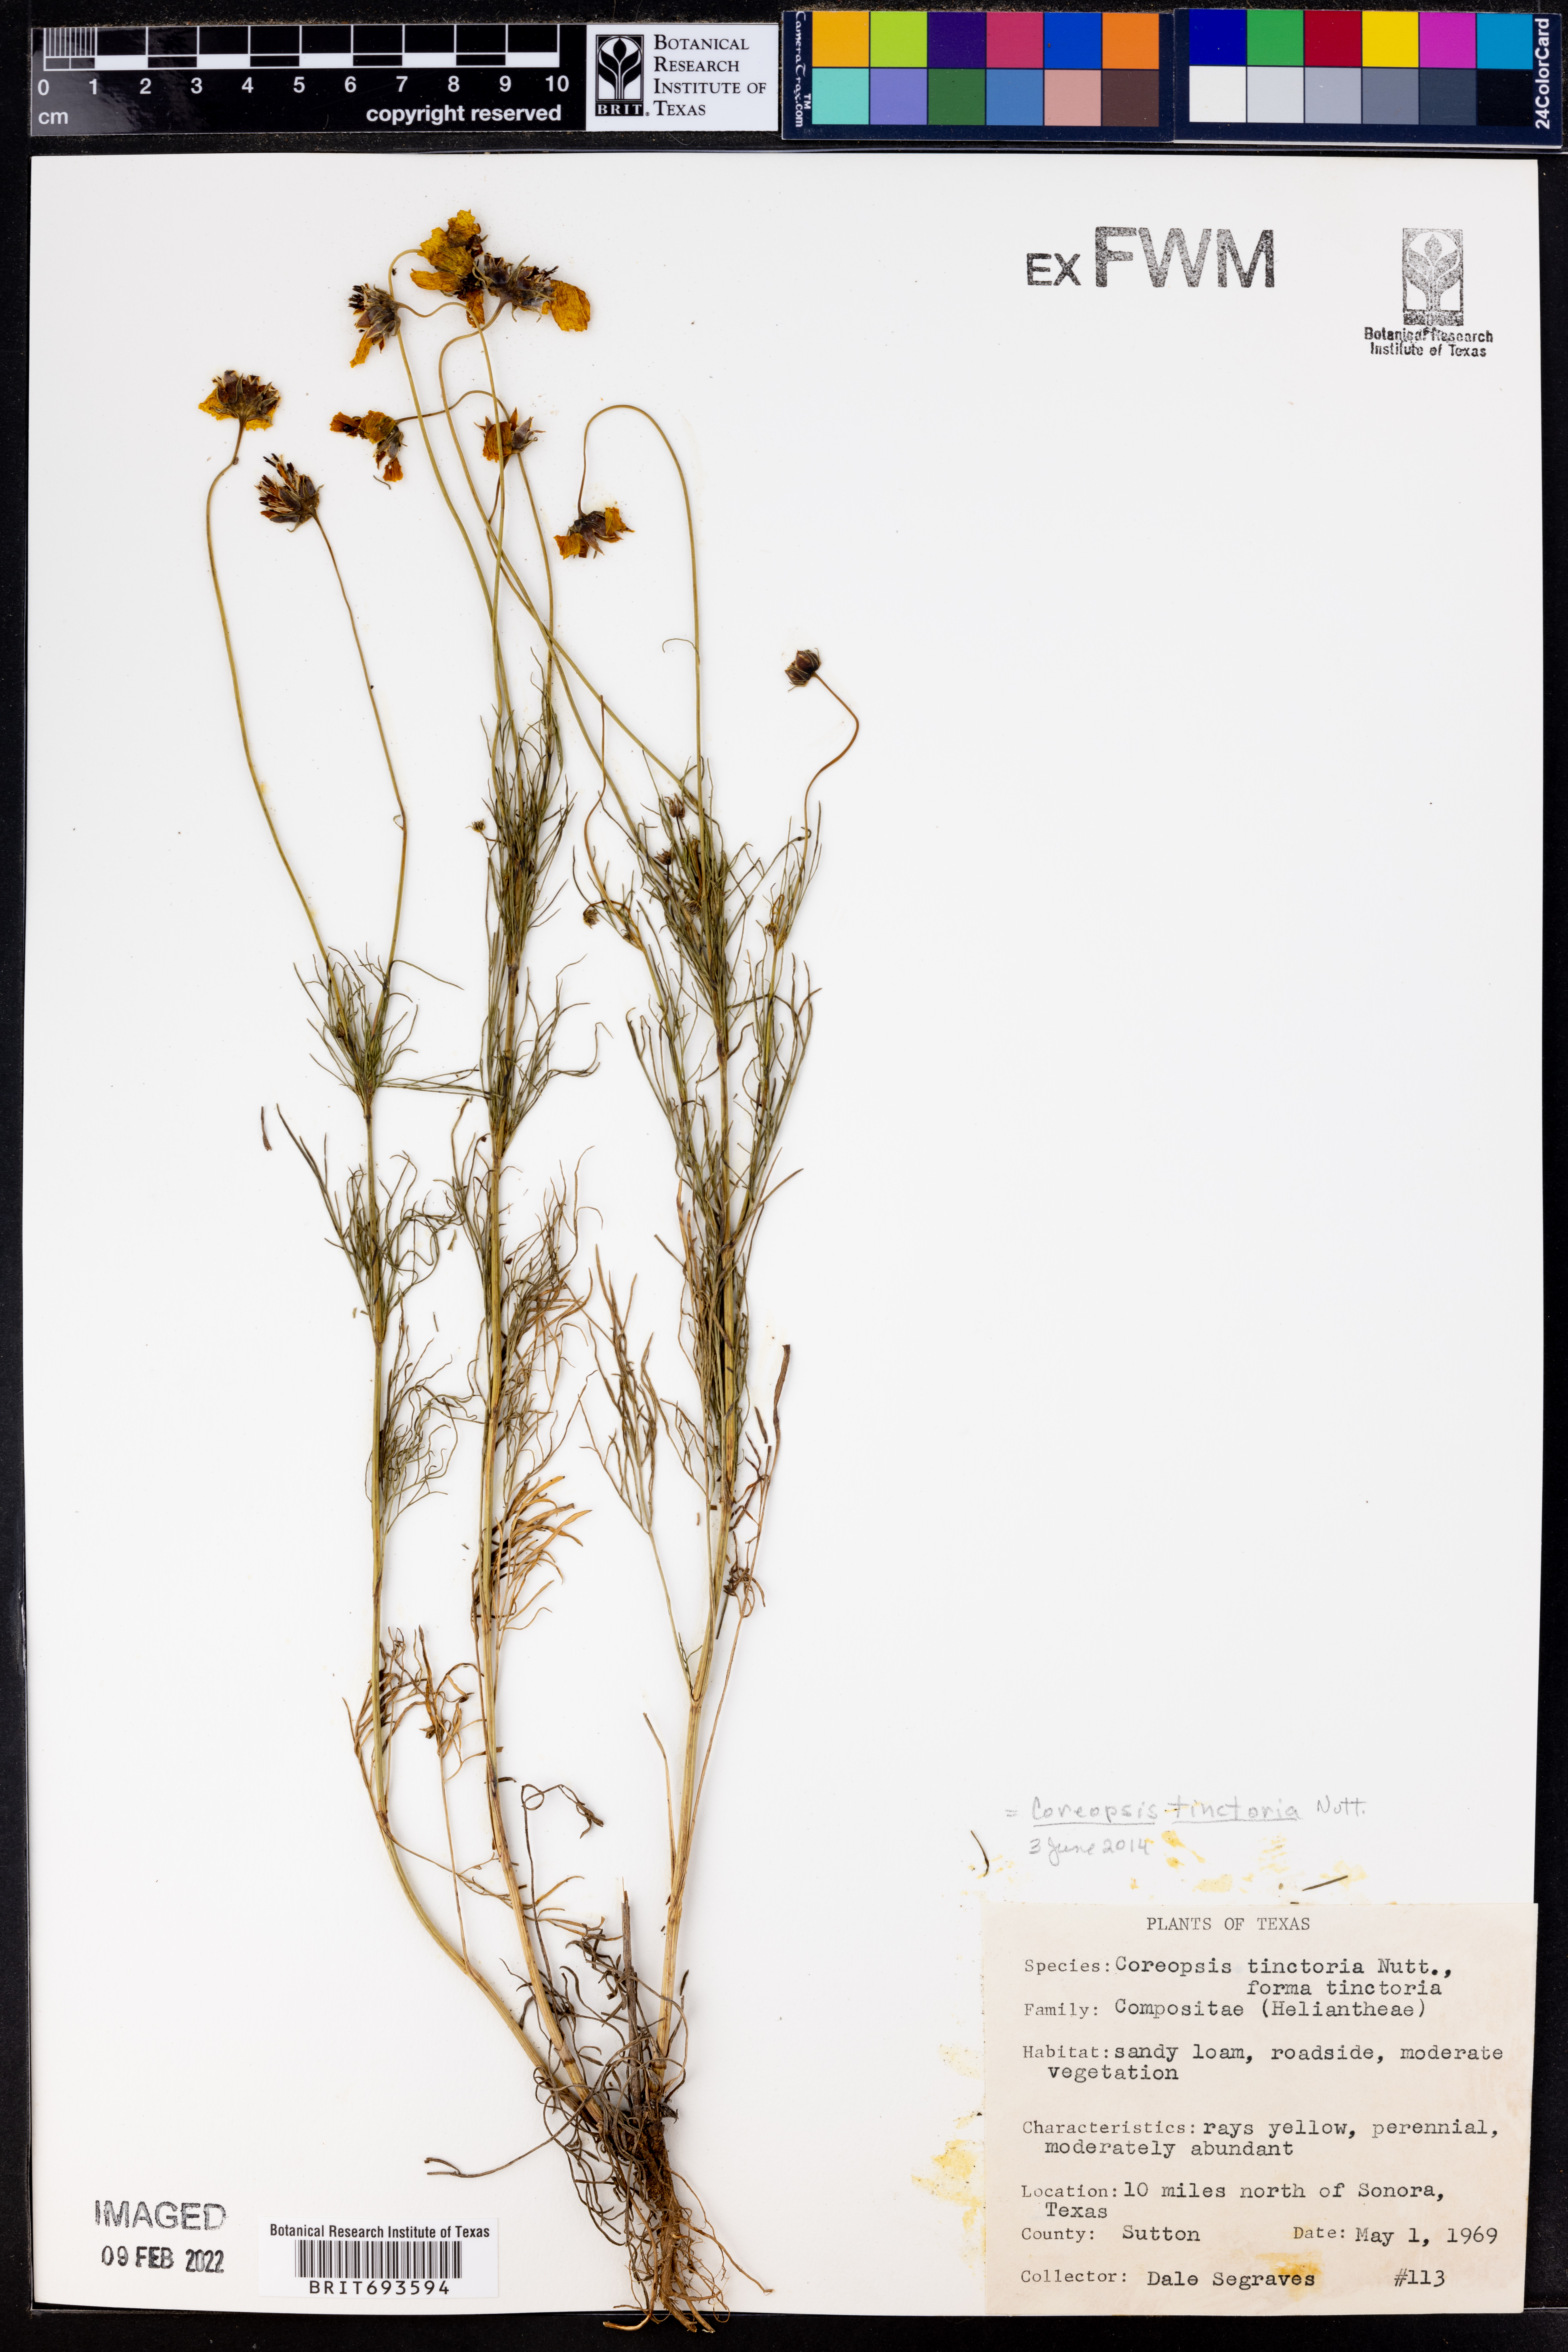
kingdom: Plantae
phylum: Tracheophyta
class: Magnoliopsida
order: Asterales
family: Asteraceae
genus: Coreopsis
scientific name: Coreopsis tinctoria
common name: Garden tickseed
